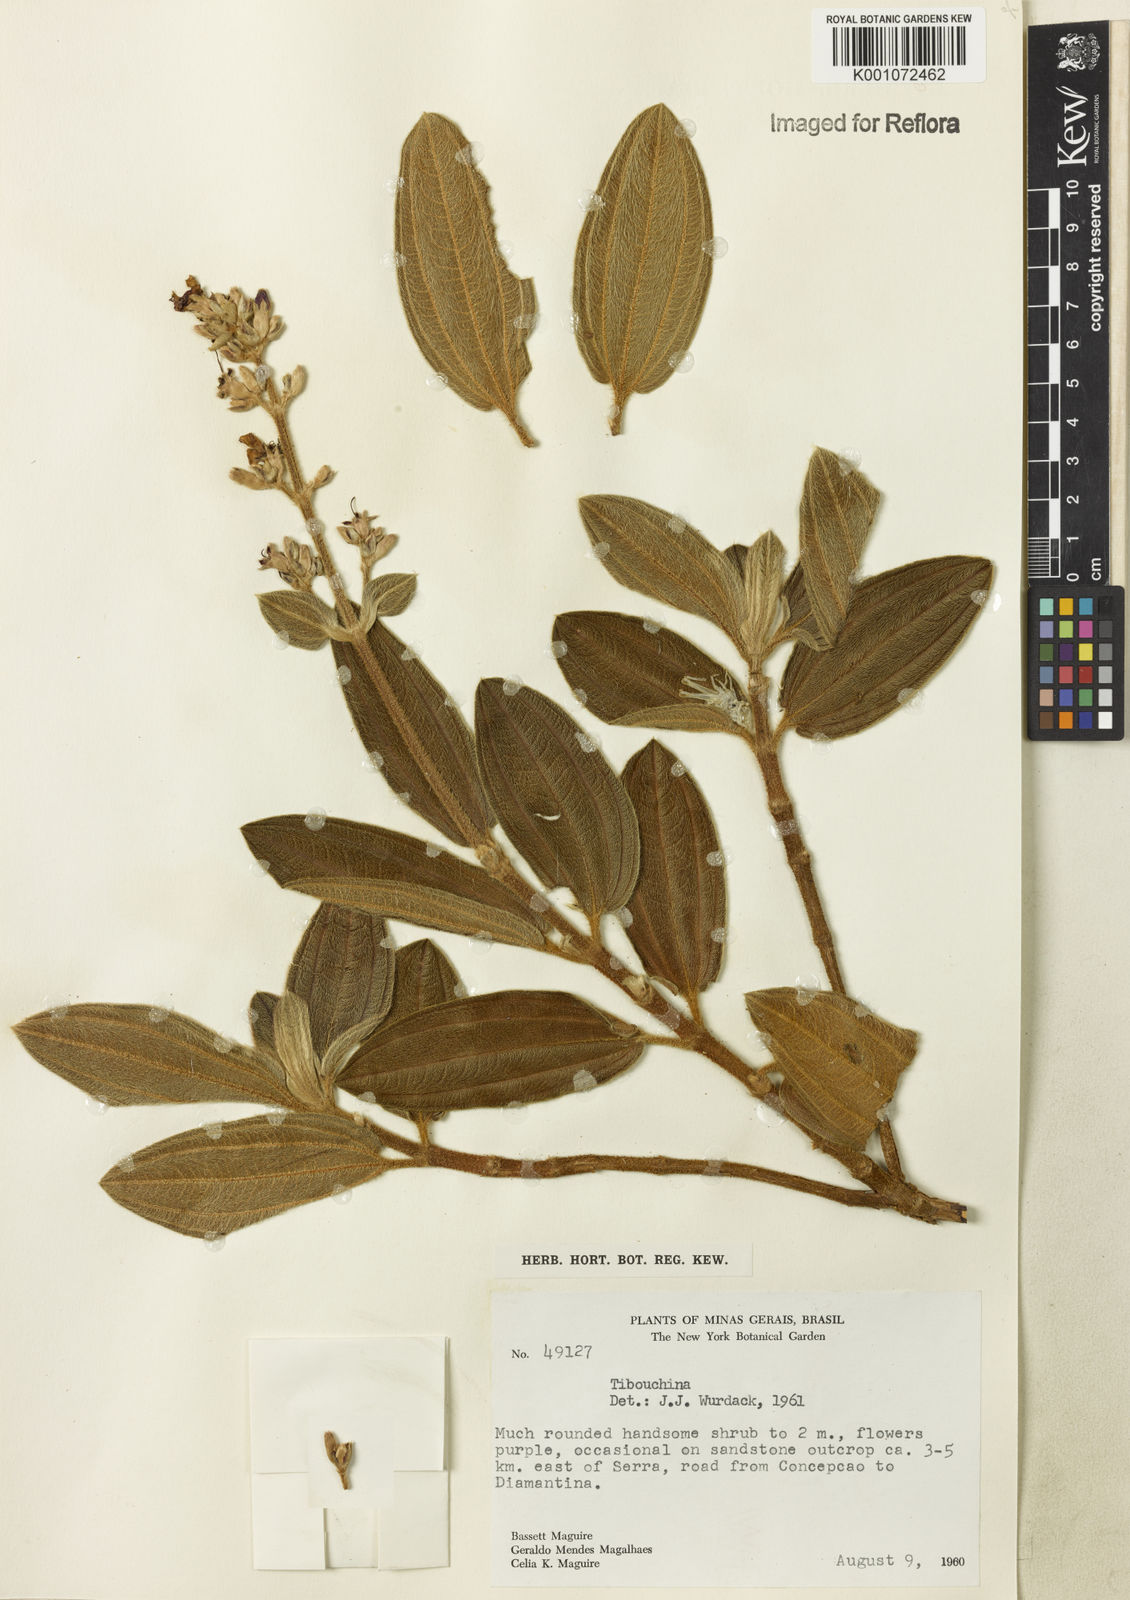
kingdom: Plantae
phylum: Tracheophyta
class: Magnoliopsida
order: Myrtales
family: Melastomataceae
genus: Tibouchina
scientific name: Tibouchina
